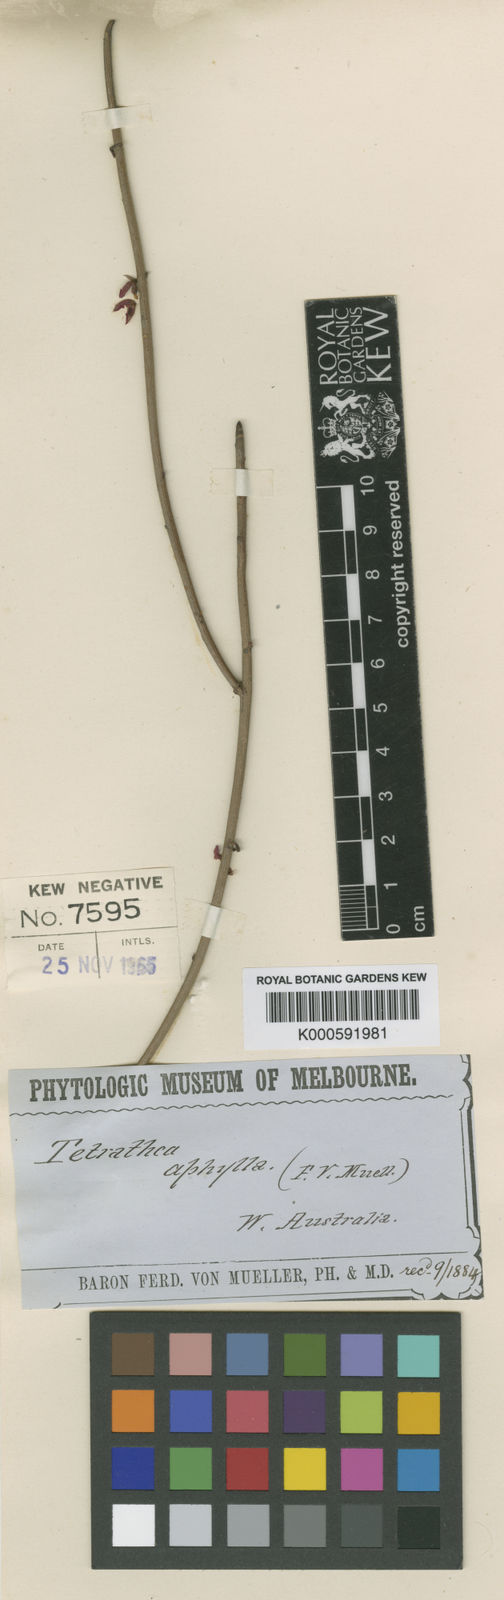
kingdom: Plantae
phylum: Tracheophyta
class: Magnoliopsida
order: Oxalidales
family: Elaeocarpaceae
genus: Tetratheca
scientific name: Tetratheca aphylla
